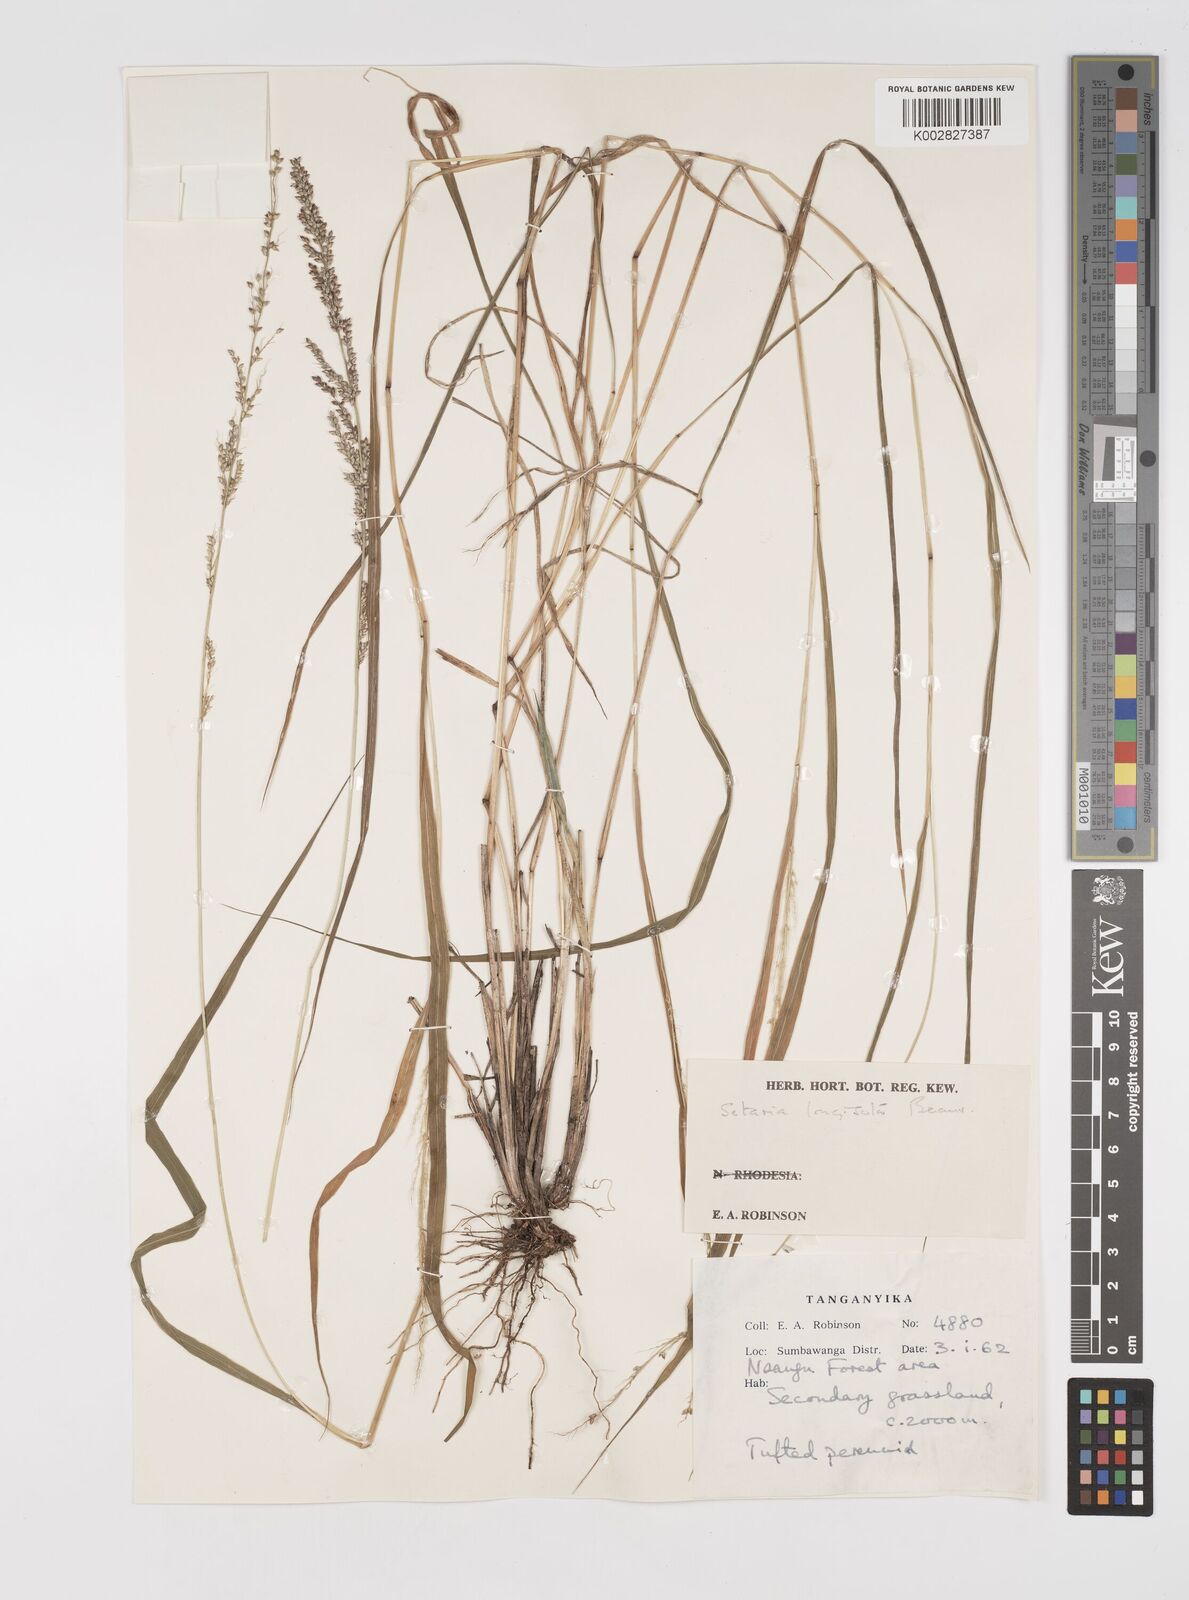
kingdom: Plantae
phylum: Tracheophyta
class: Liliopsida
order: Poales
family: Poaceae
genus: Setaria
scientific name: Setaria longiseta
